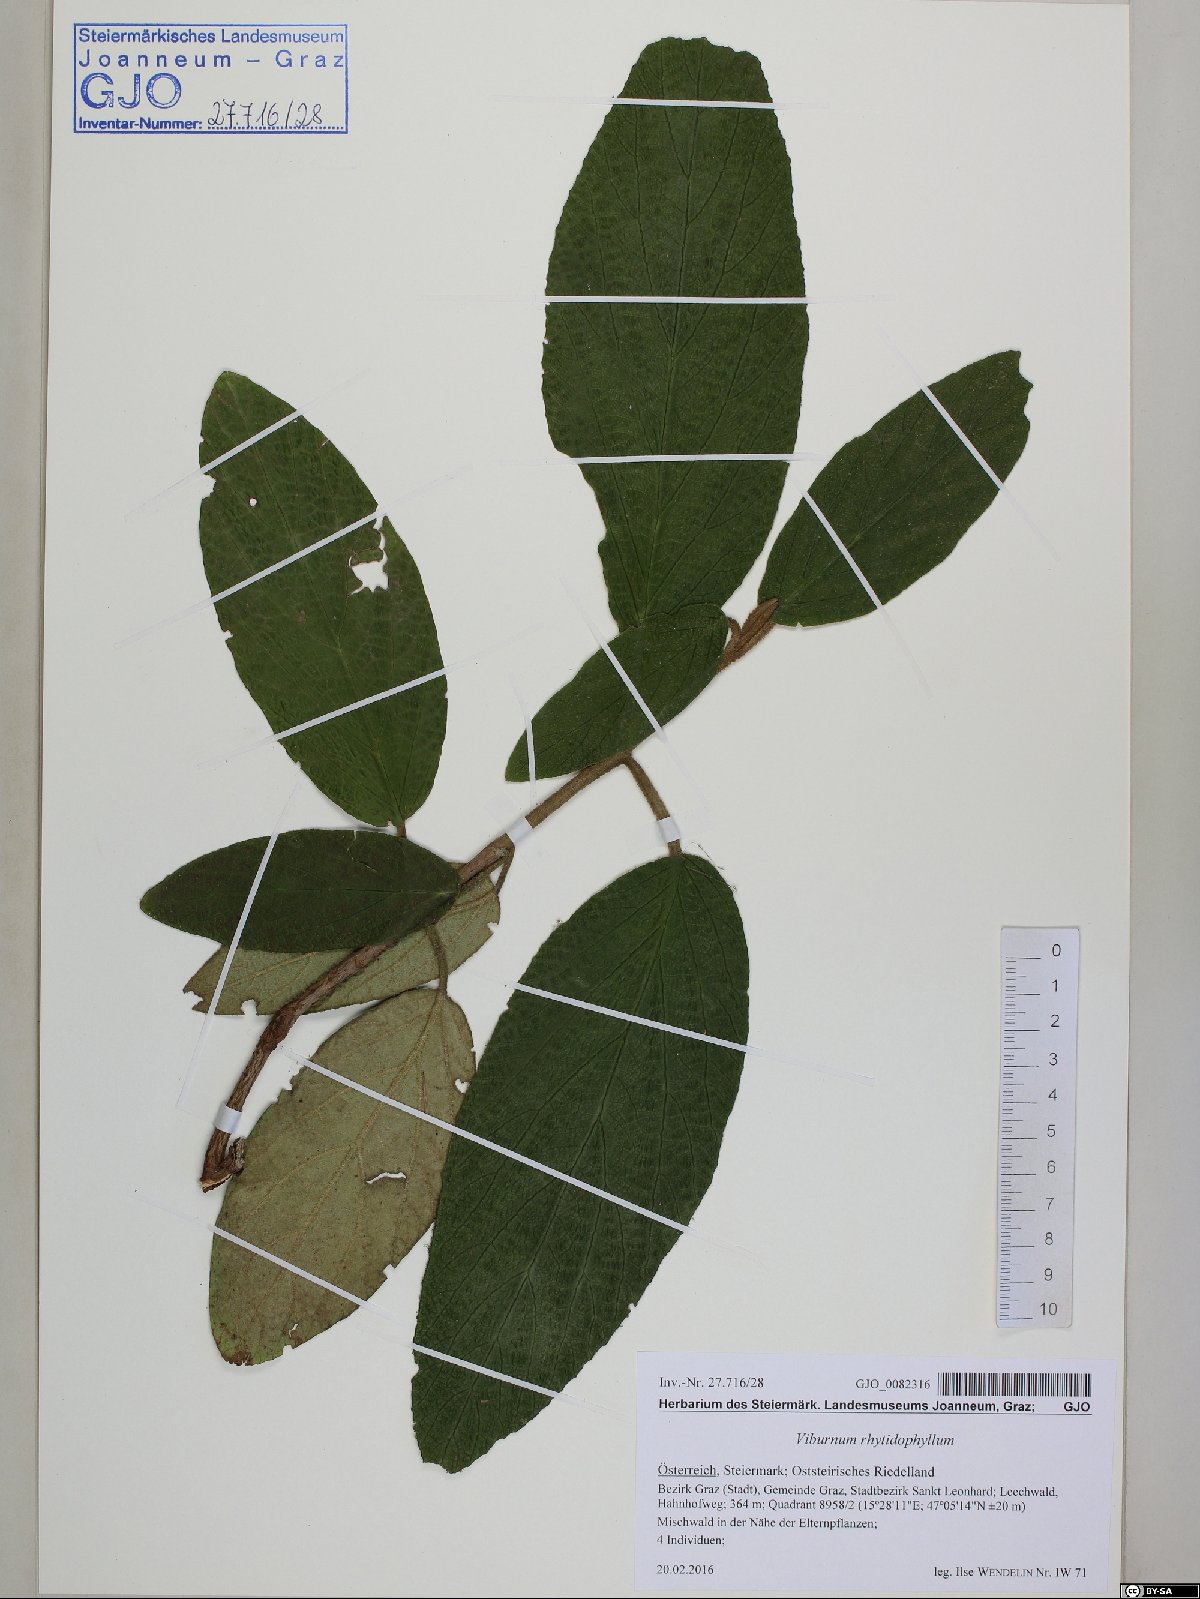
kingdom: Plantae
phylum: Tracheophyta
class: Magnoliopsida
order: Dipsacales
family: Viburnaceae
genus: Viburnum
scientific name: Viburnum rhytidophyllum
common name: Wrinkled viburnum
